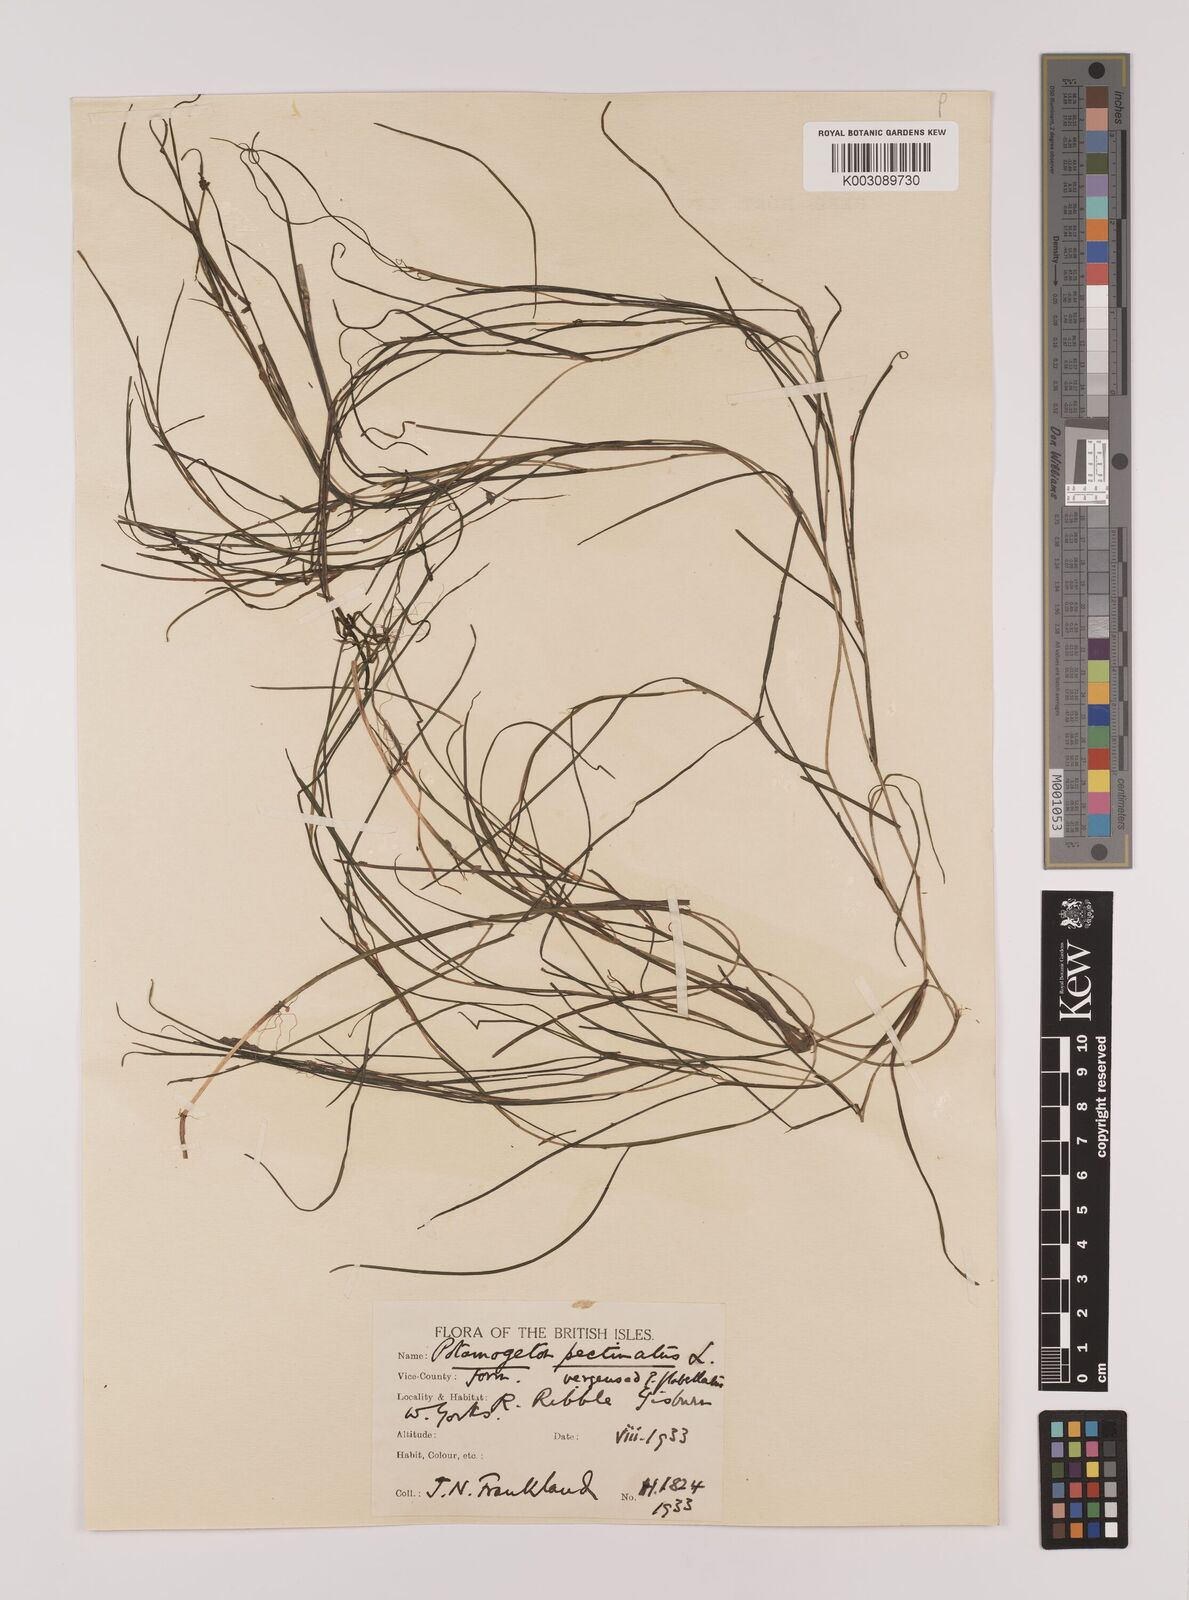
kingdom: Plantae
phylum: Tracheophyta
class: Liliopsida
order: Alismatales
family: Potamogetonaceae
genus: Stuckenia
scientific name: Stuckenia pectinata
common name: Sago pondweed
